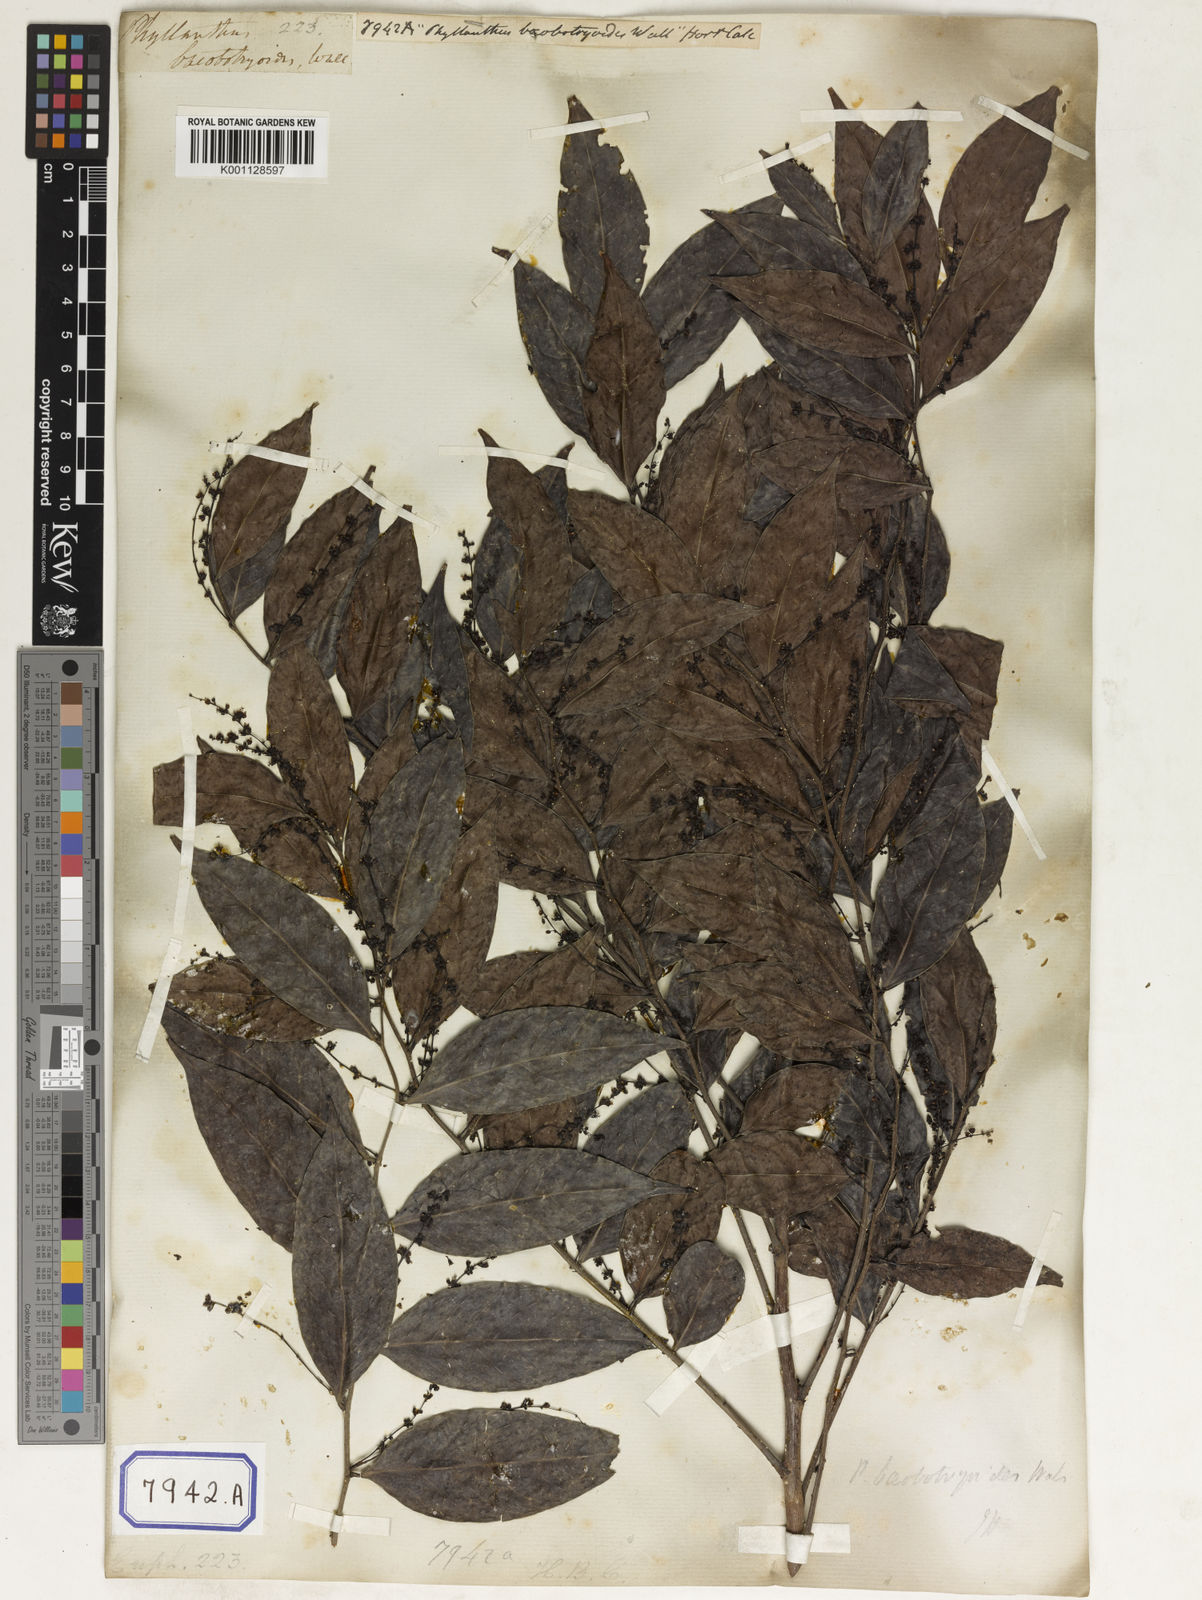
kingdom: Plantae
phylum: Tracheophyta
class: Magnoliopsida
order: Malpighiales
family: Euphorbiaceae
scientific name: Euphorbiaceae
